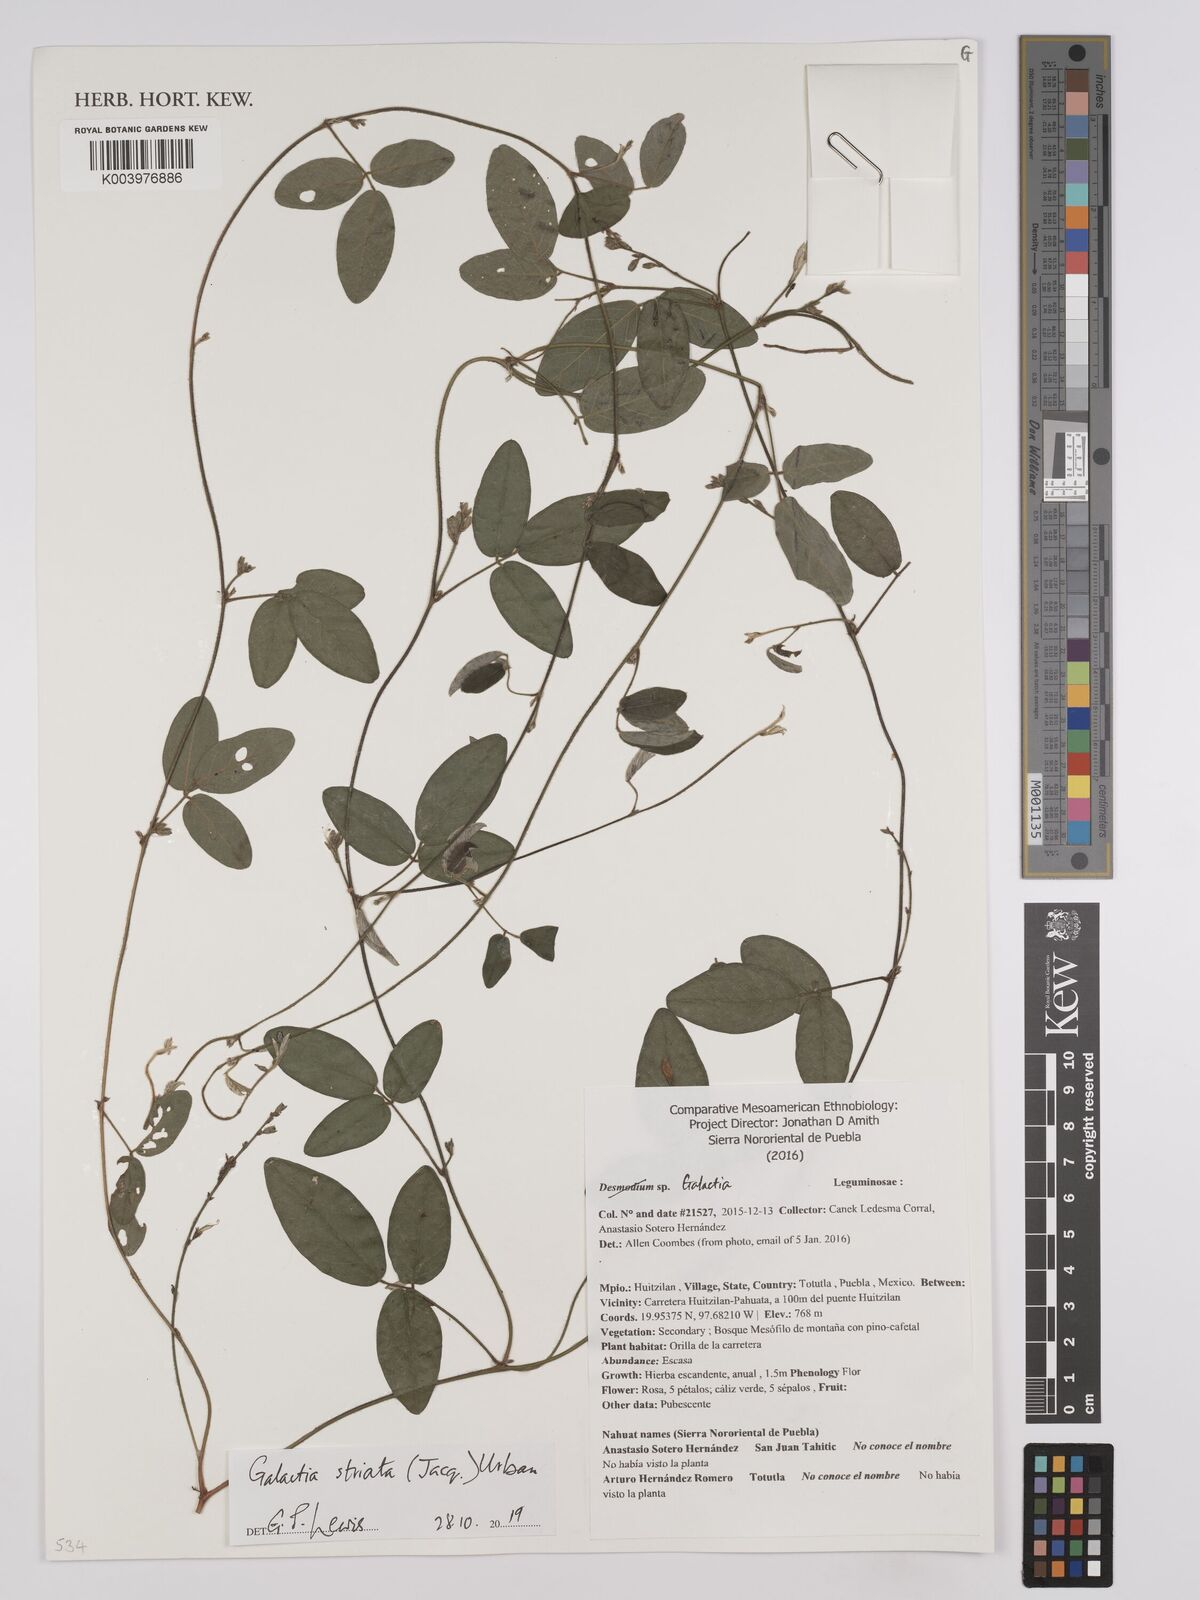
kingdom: Plantae
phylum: Tracheophyta
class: Magnoliopsida
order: Fabales
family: Fabaceae
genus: Galactia
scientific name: Galactia striata
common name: Florida hammock milkpea
